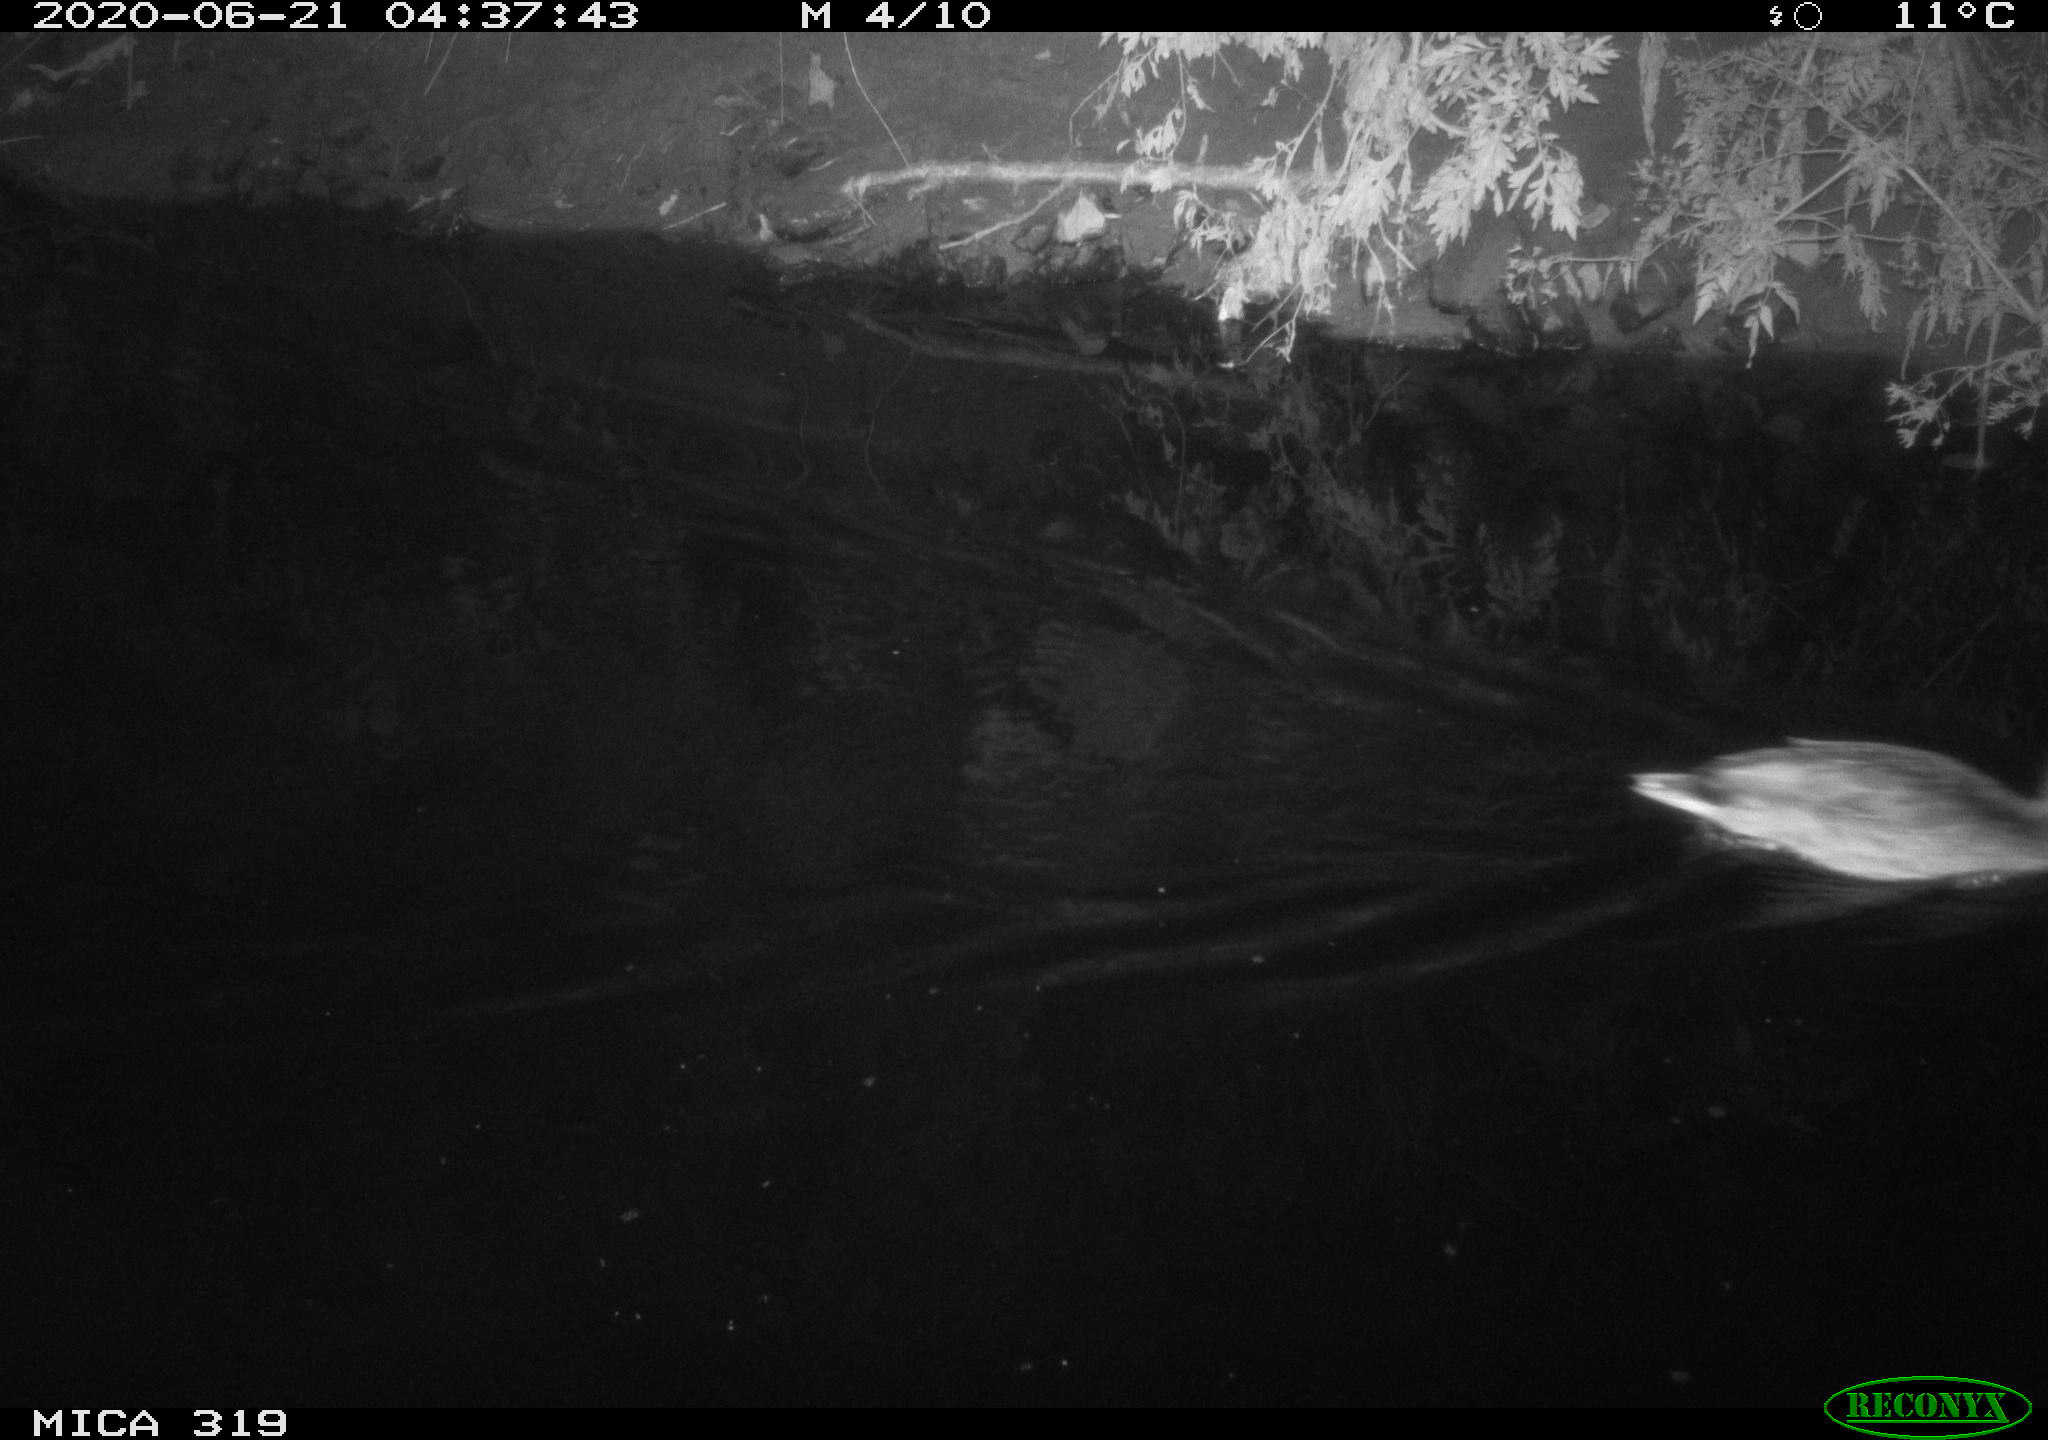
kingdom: Animalia
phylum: Chordata
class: Aves
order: Anseriformes
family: Anatidae
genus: Anas
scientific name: Anas platyrhynchos
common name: Mallard
